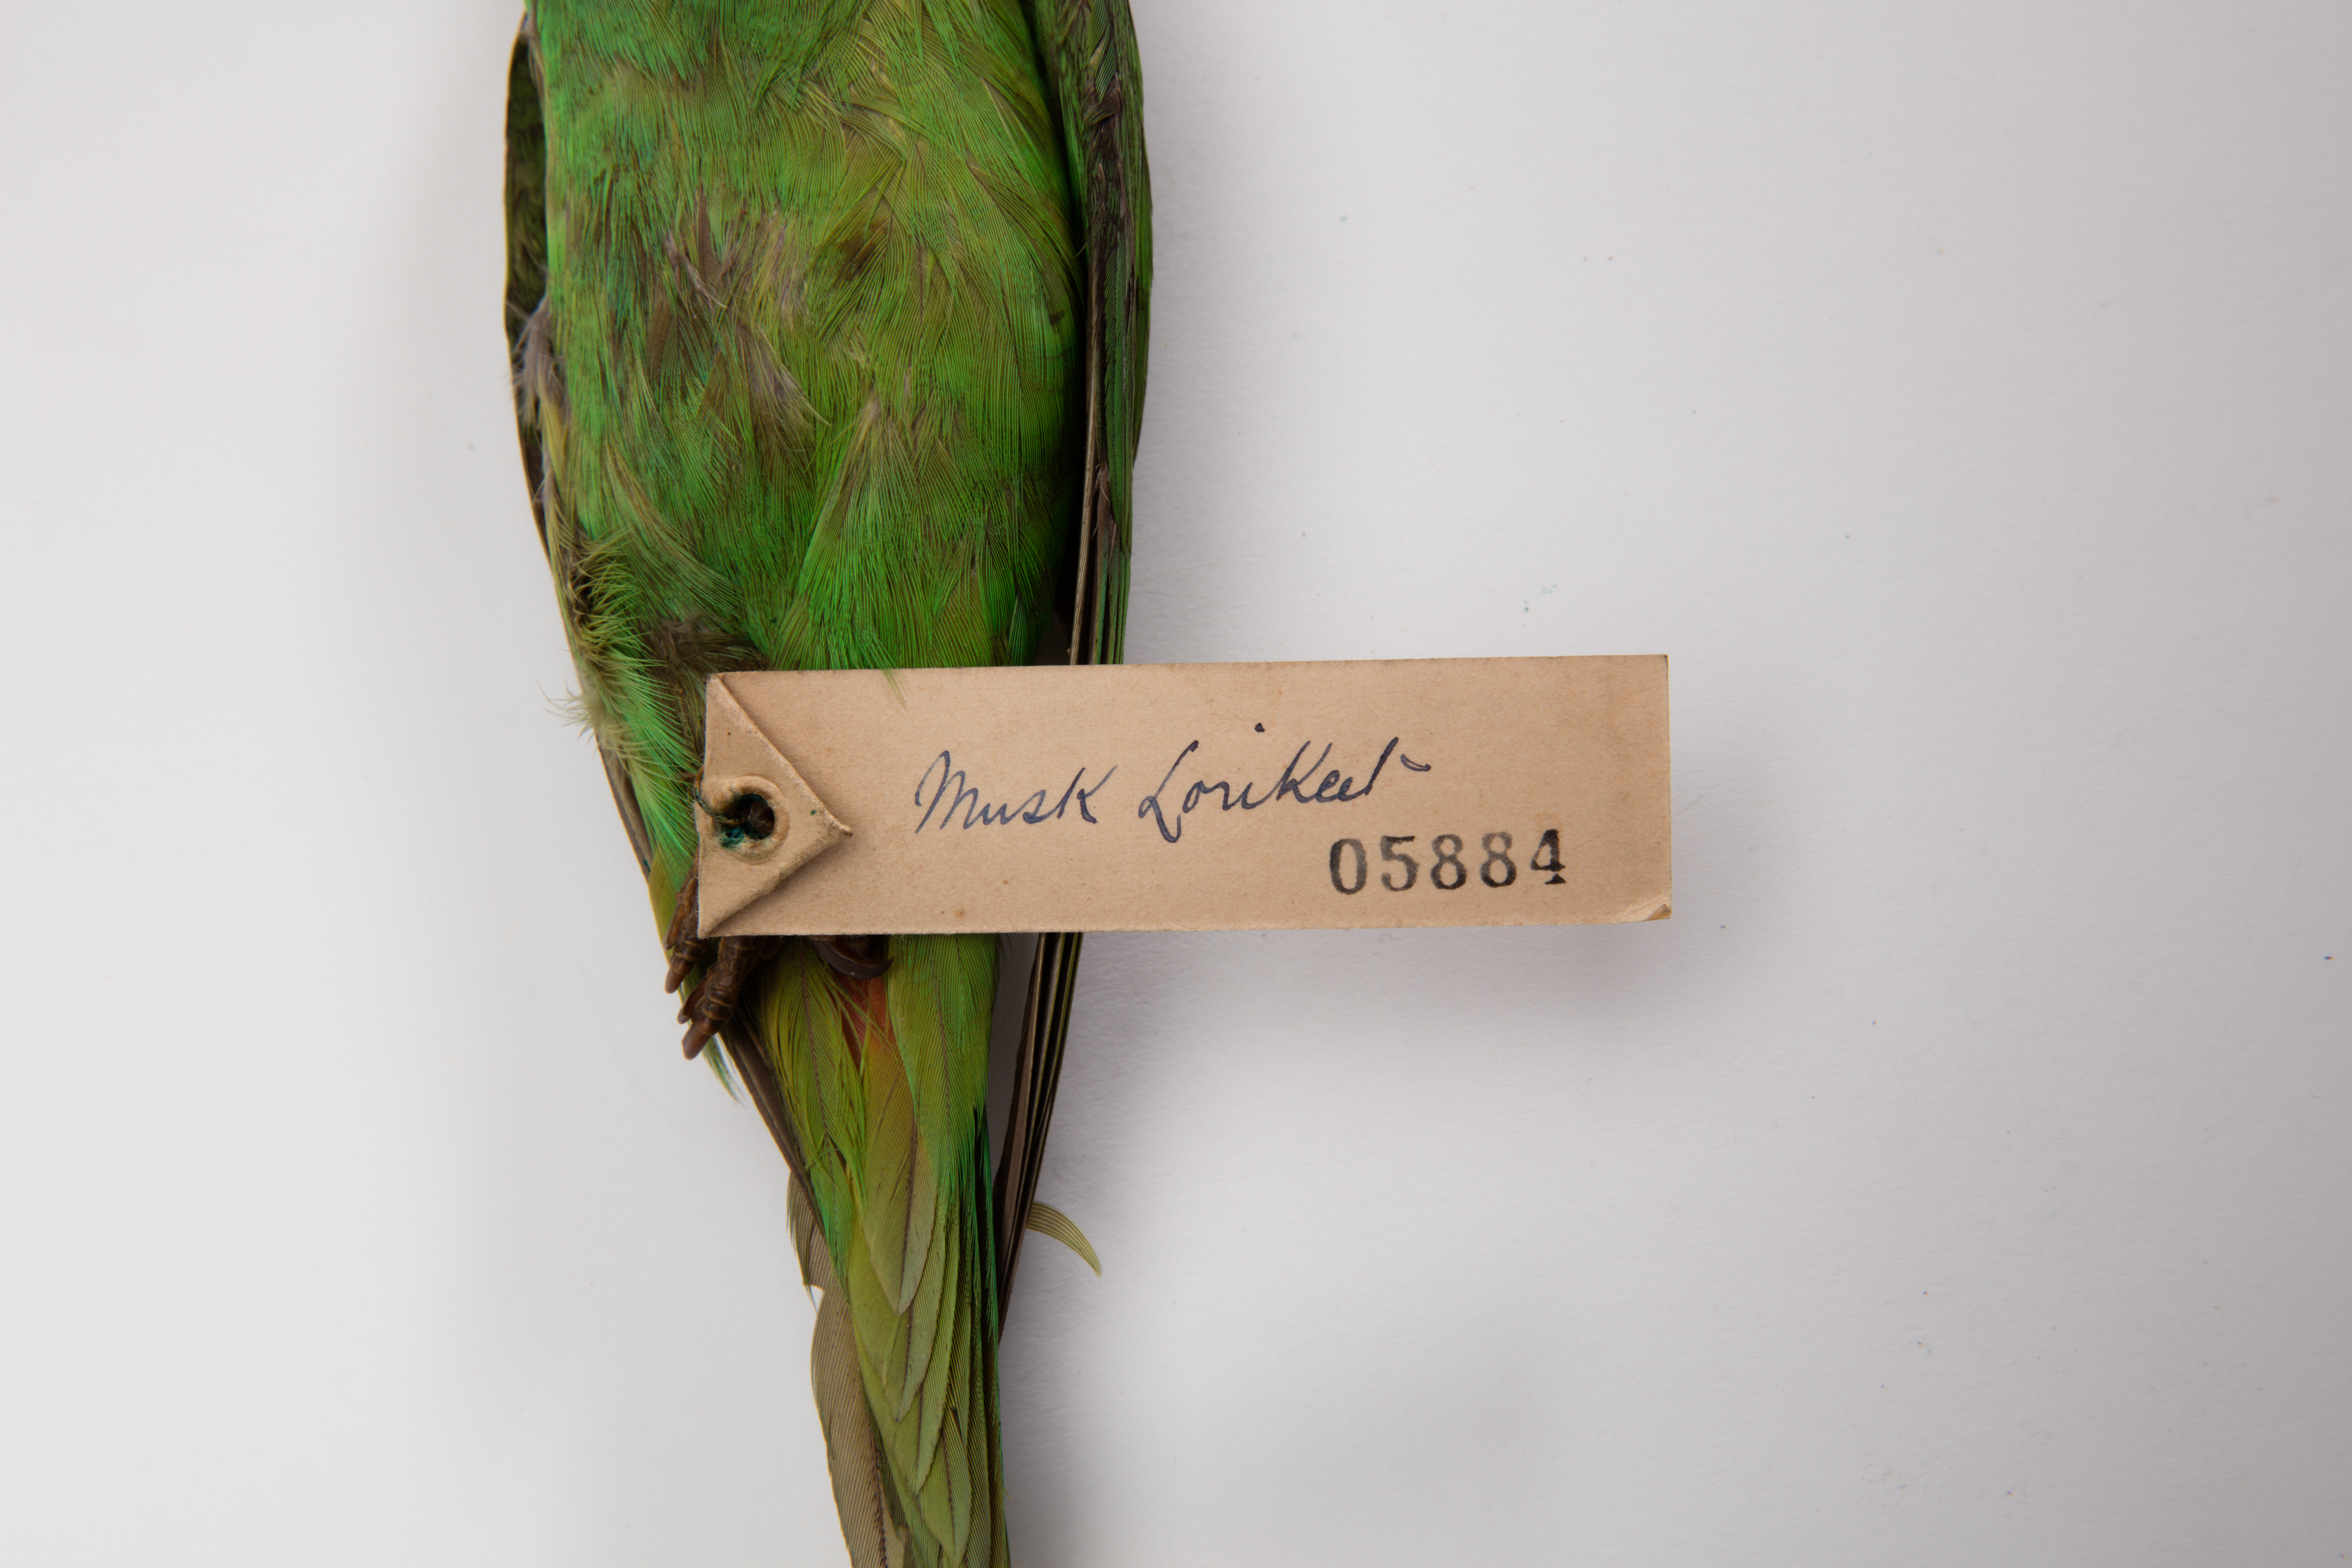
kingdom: Animalia
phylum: Chordata
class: Aves
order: Psittaciformes
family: Psittacidae
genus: Glossopsitta
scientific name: Glossopsitta concinna
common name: Musk lorikeet
